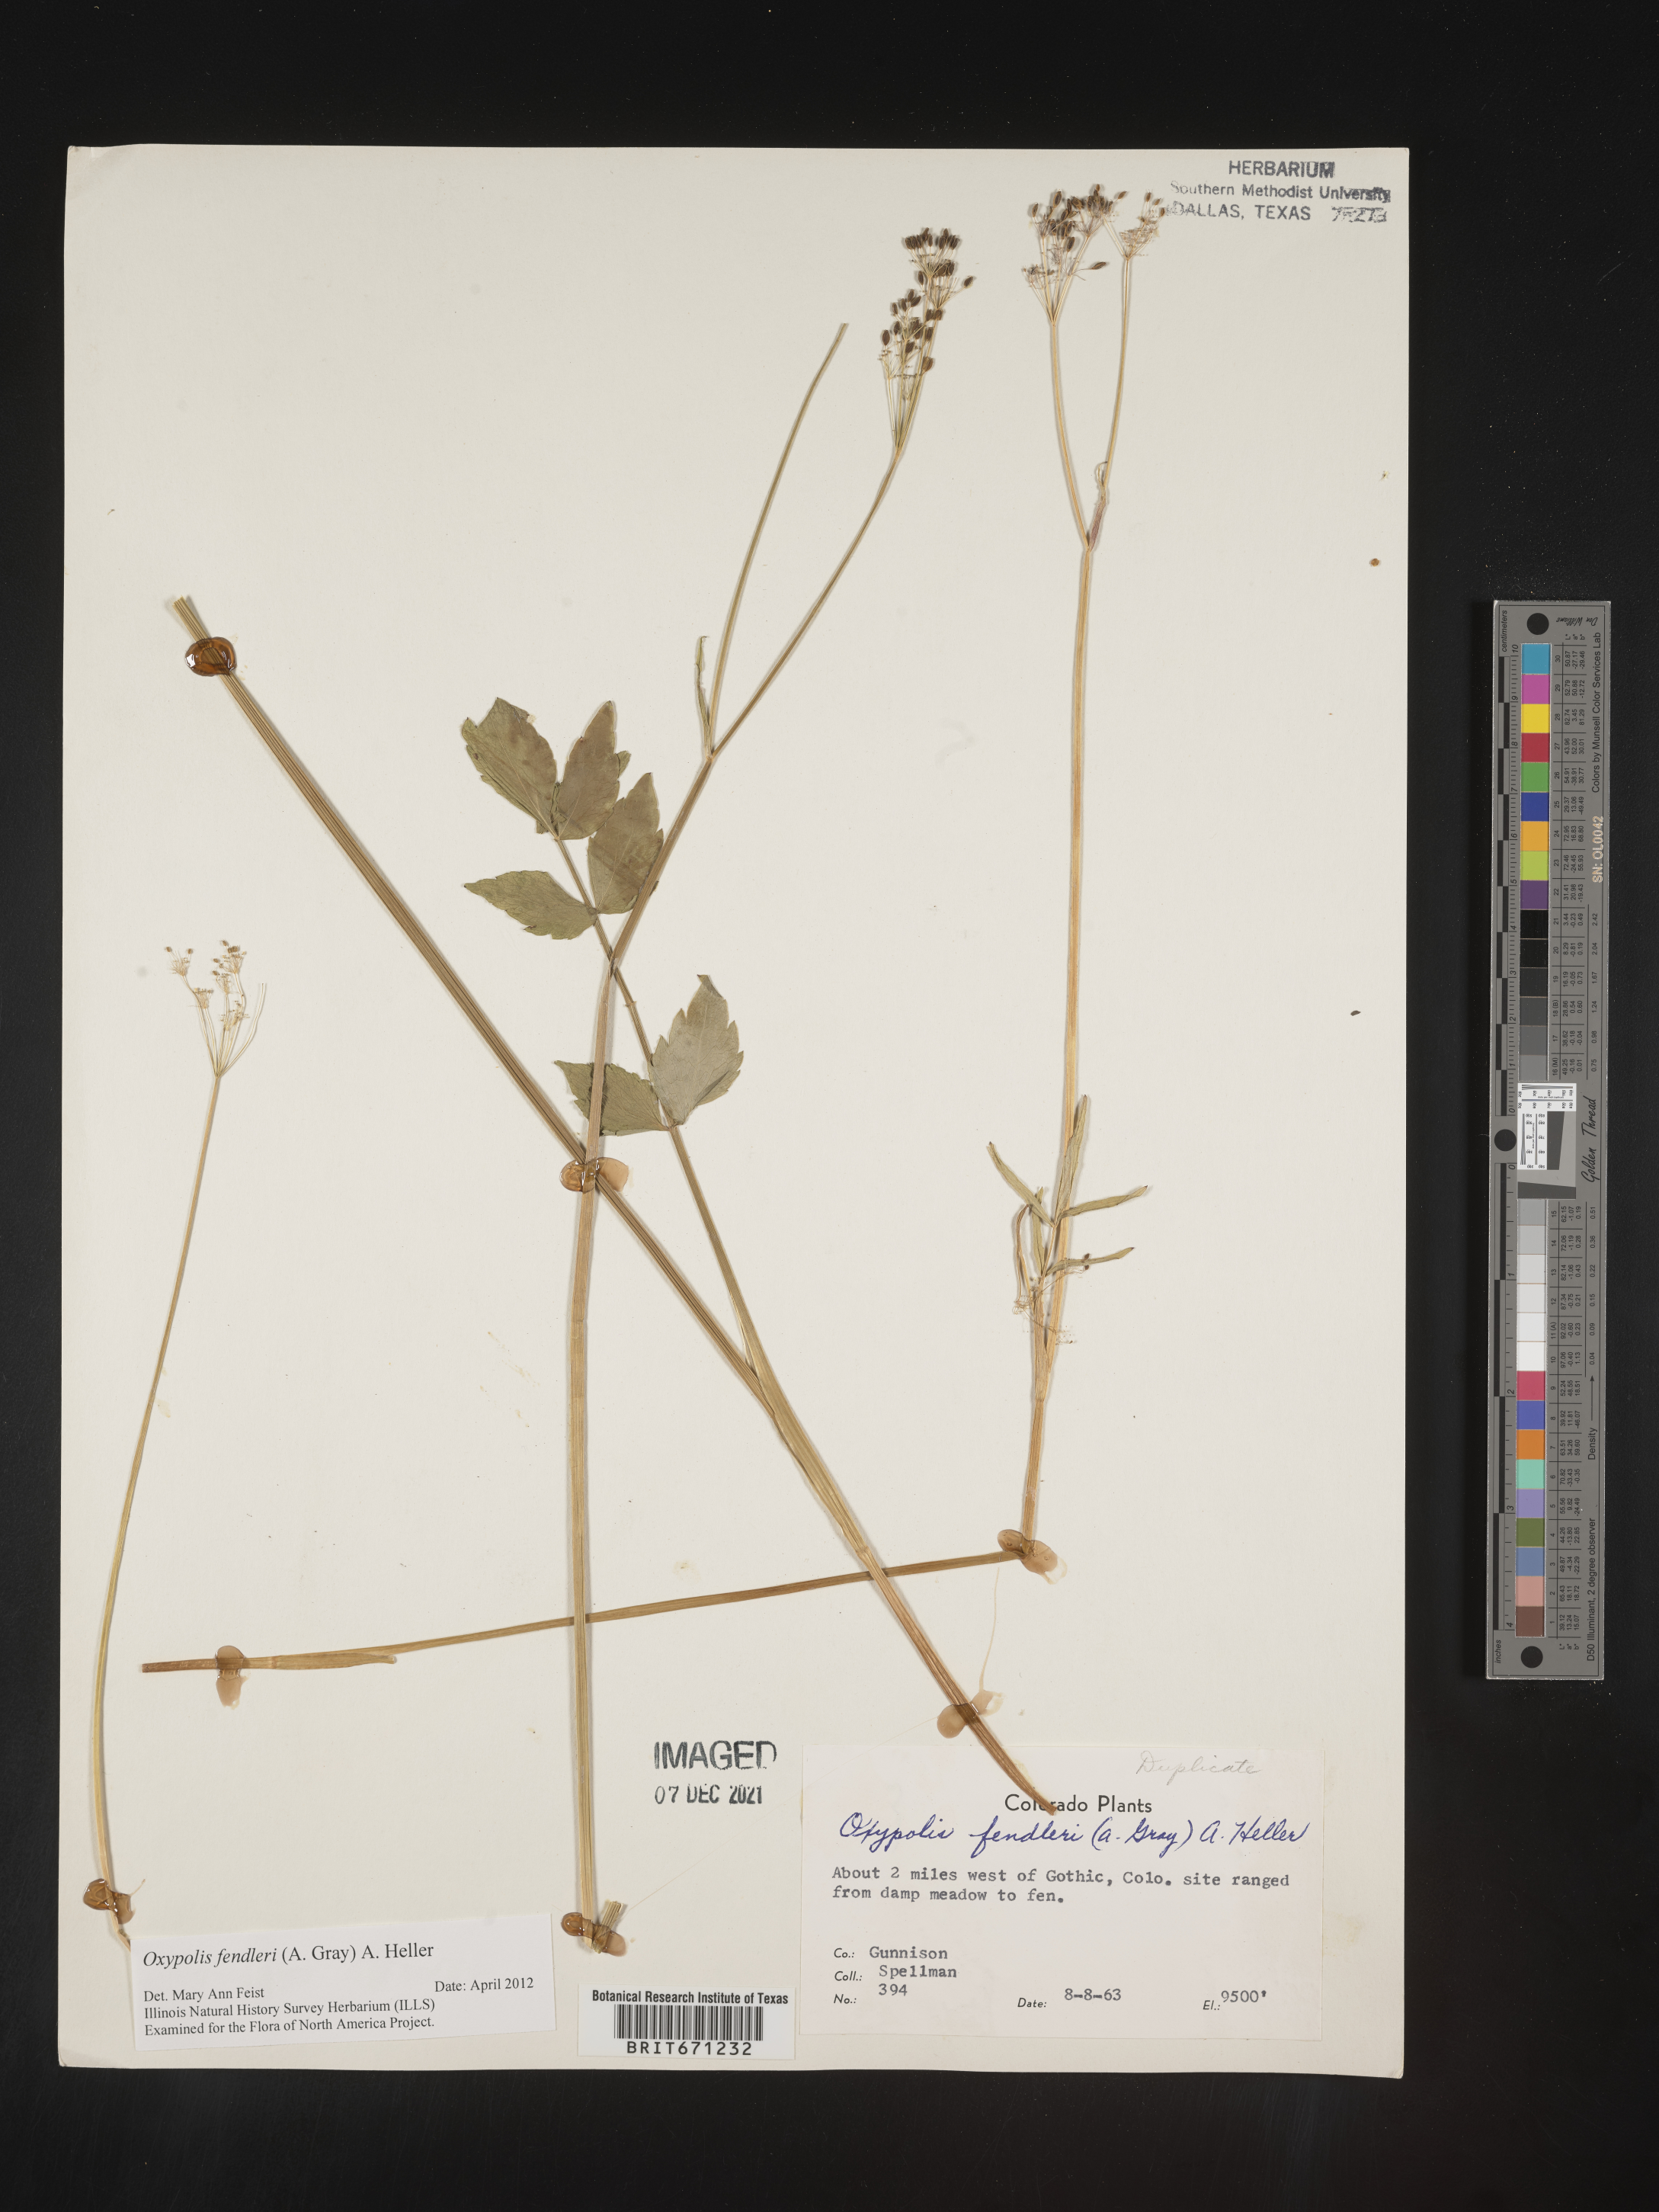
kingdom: Plantae
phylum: Tracheophyta
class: Magnoliopsida
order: Apiales
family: Apiaceae
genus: Oxypolis
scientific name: Oxypolis fendleri
